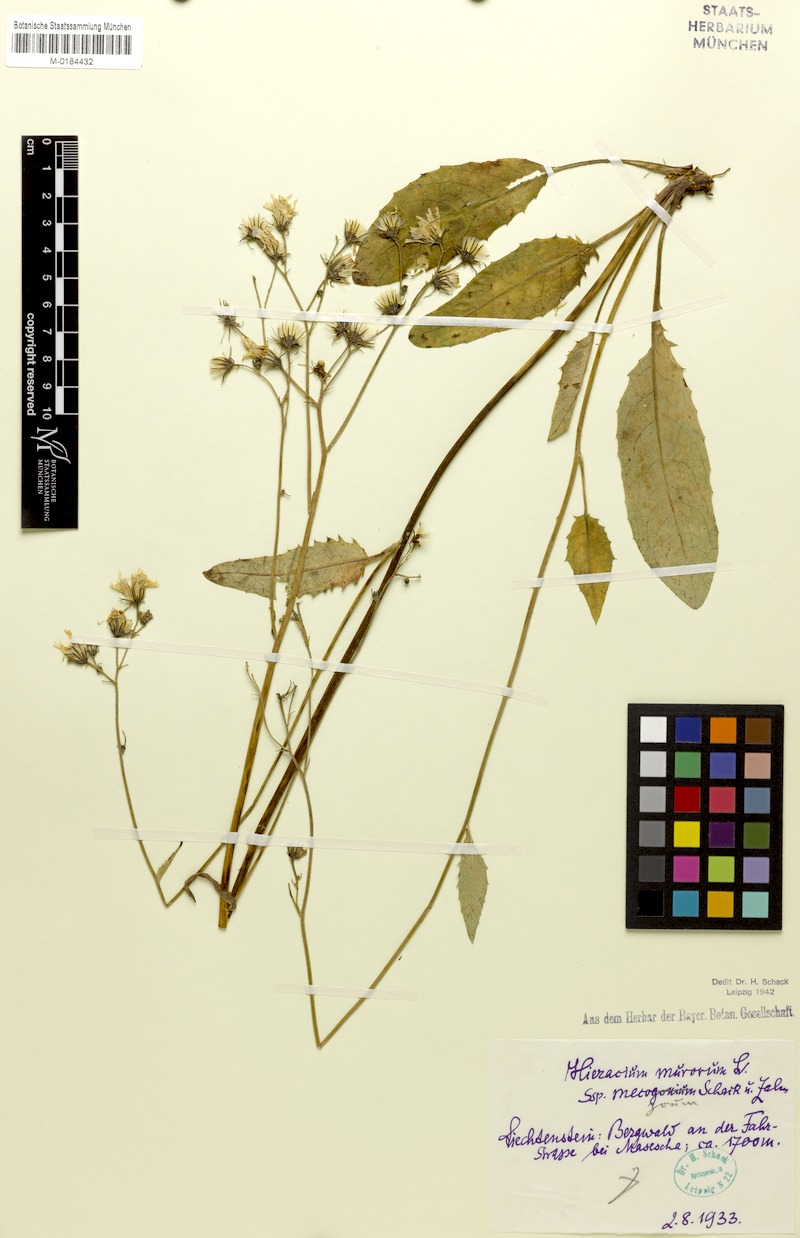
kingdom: Plantae
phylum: Tracheophyta
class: Magnoliopsida
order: Asterales
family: Asteraceae
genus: Hieracium
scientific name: Hieracium murorum
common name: Wall hawkweed
